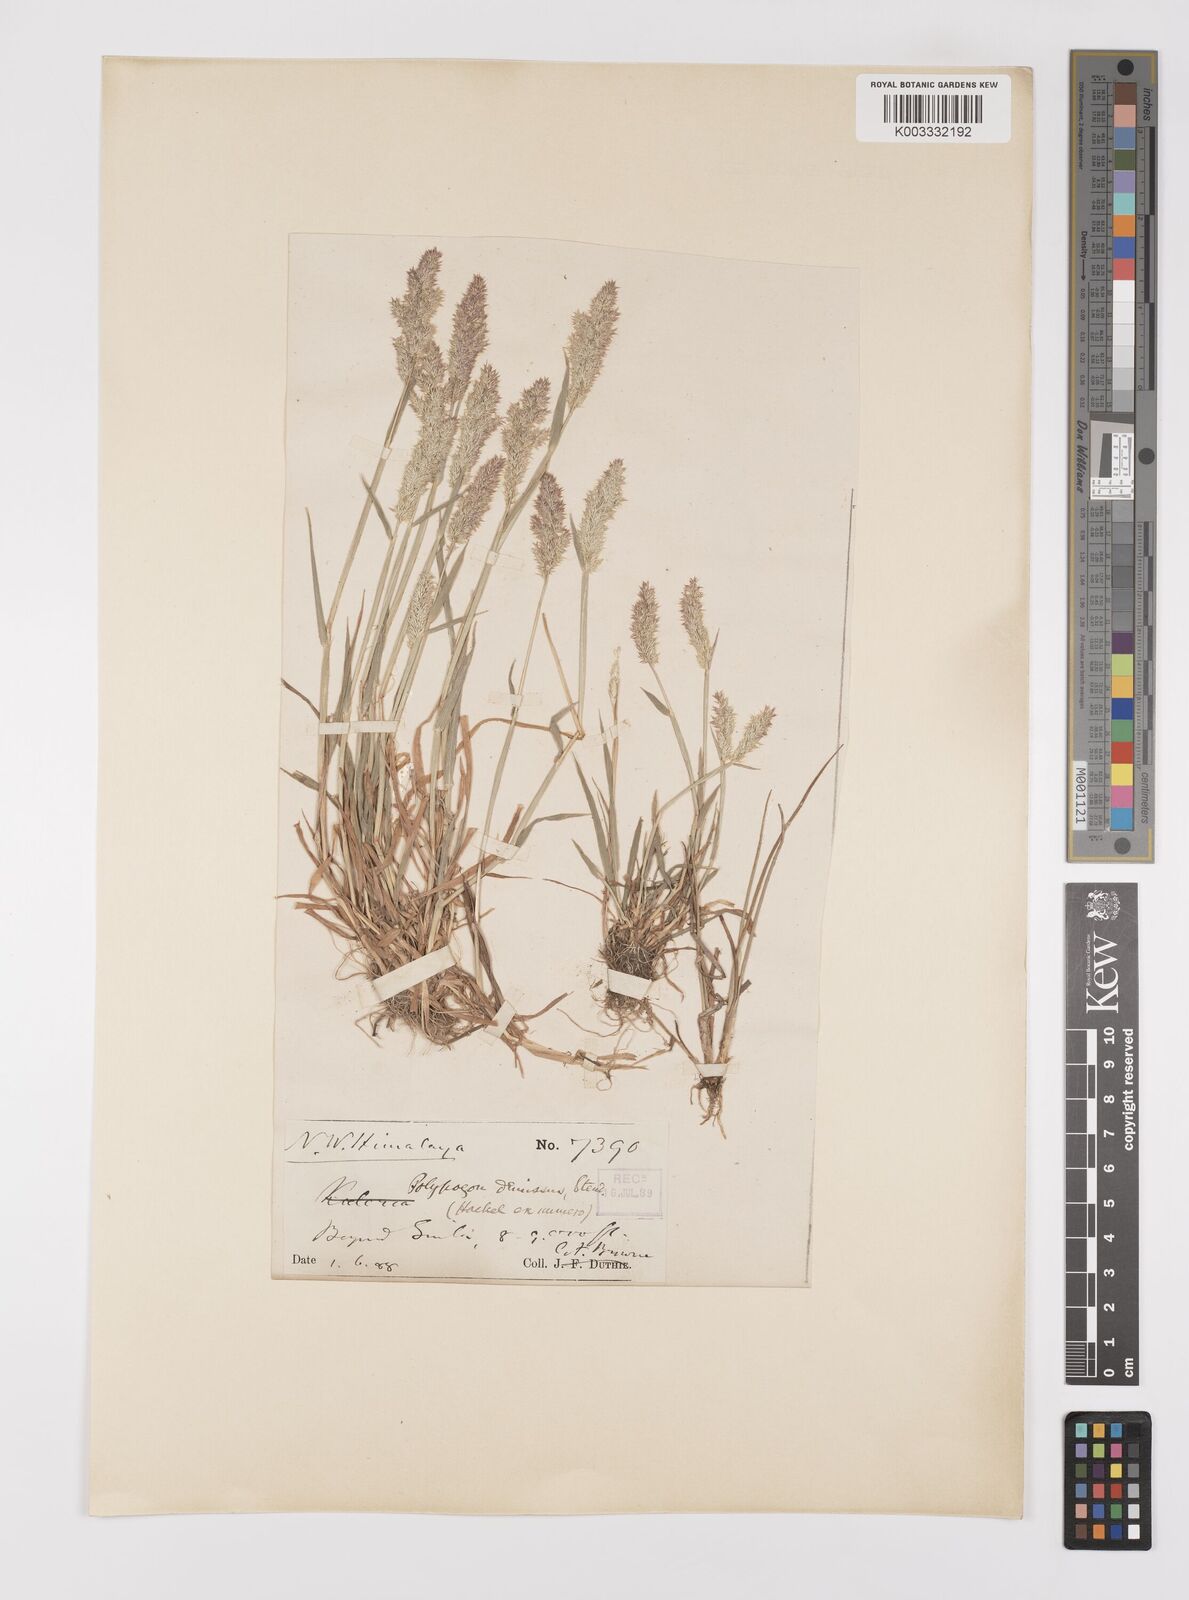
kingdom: Plantae
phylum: Tracheophyta
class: Liliopsida
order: Poales
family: Poaceae
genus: Polypogon
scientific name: Polypogon fugax
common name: Asia minor bluegrass
